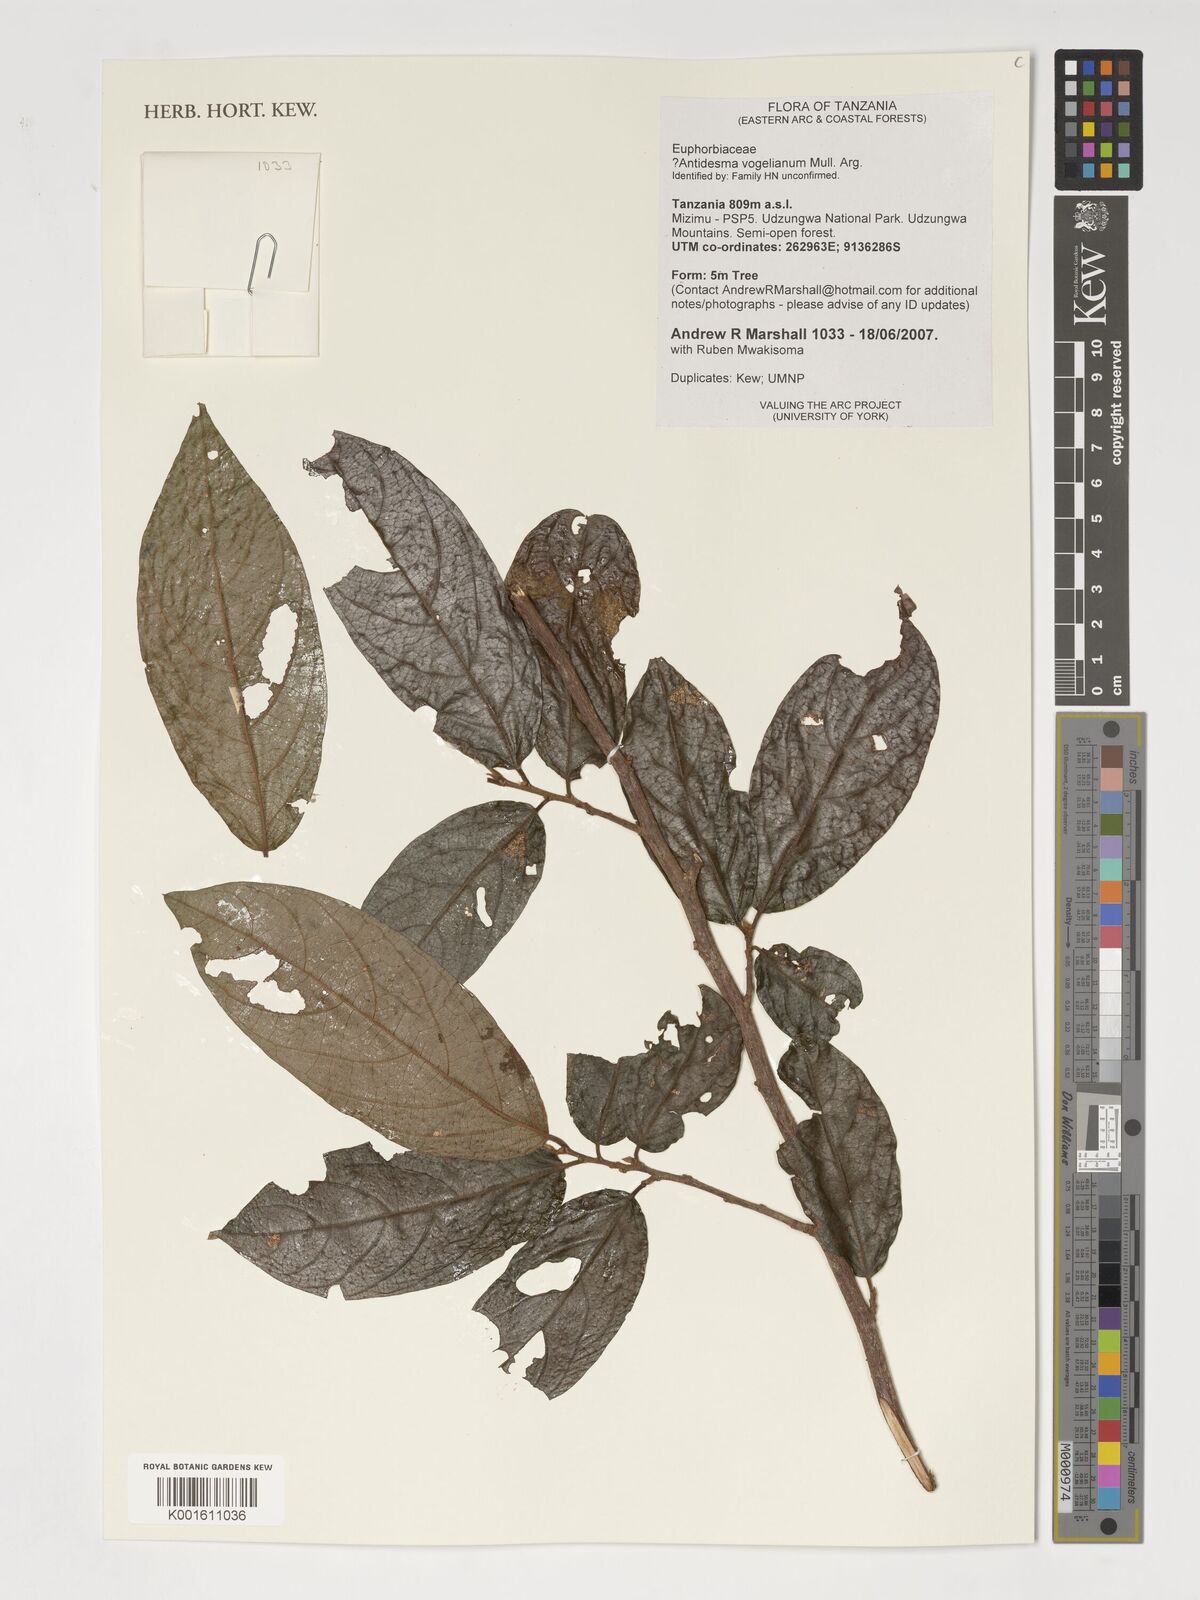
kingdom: Plantae
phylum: Tracheophyta
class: Magnoliopsida
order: Malpighiales
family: Phyllanthaceae
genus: Antidesma
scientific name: Antidesma vogelianum
